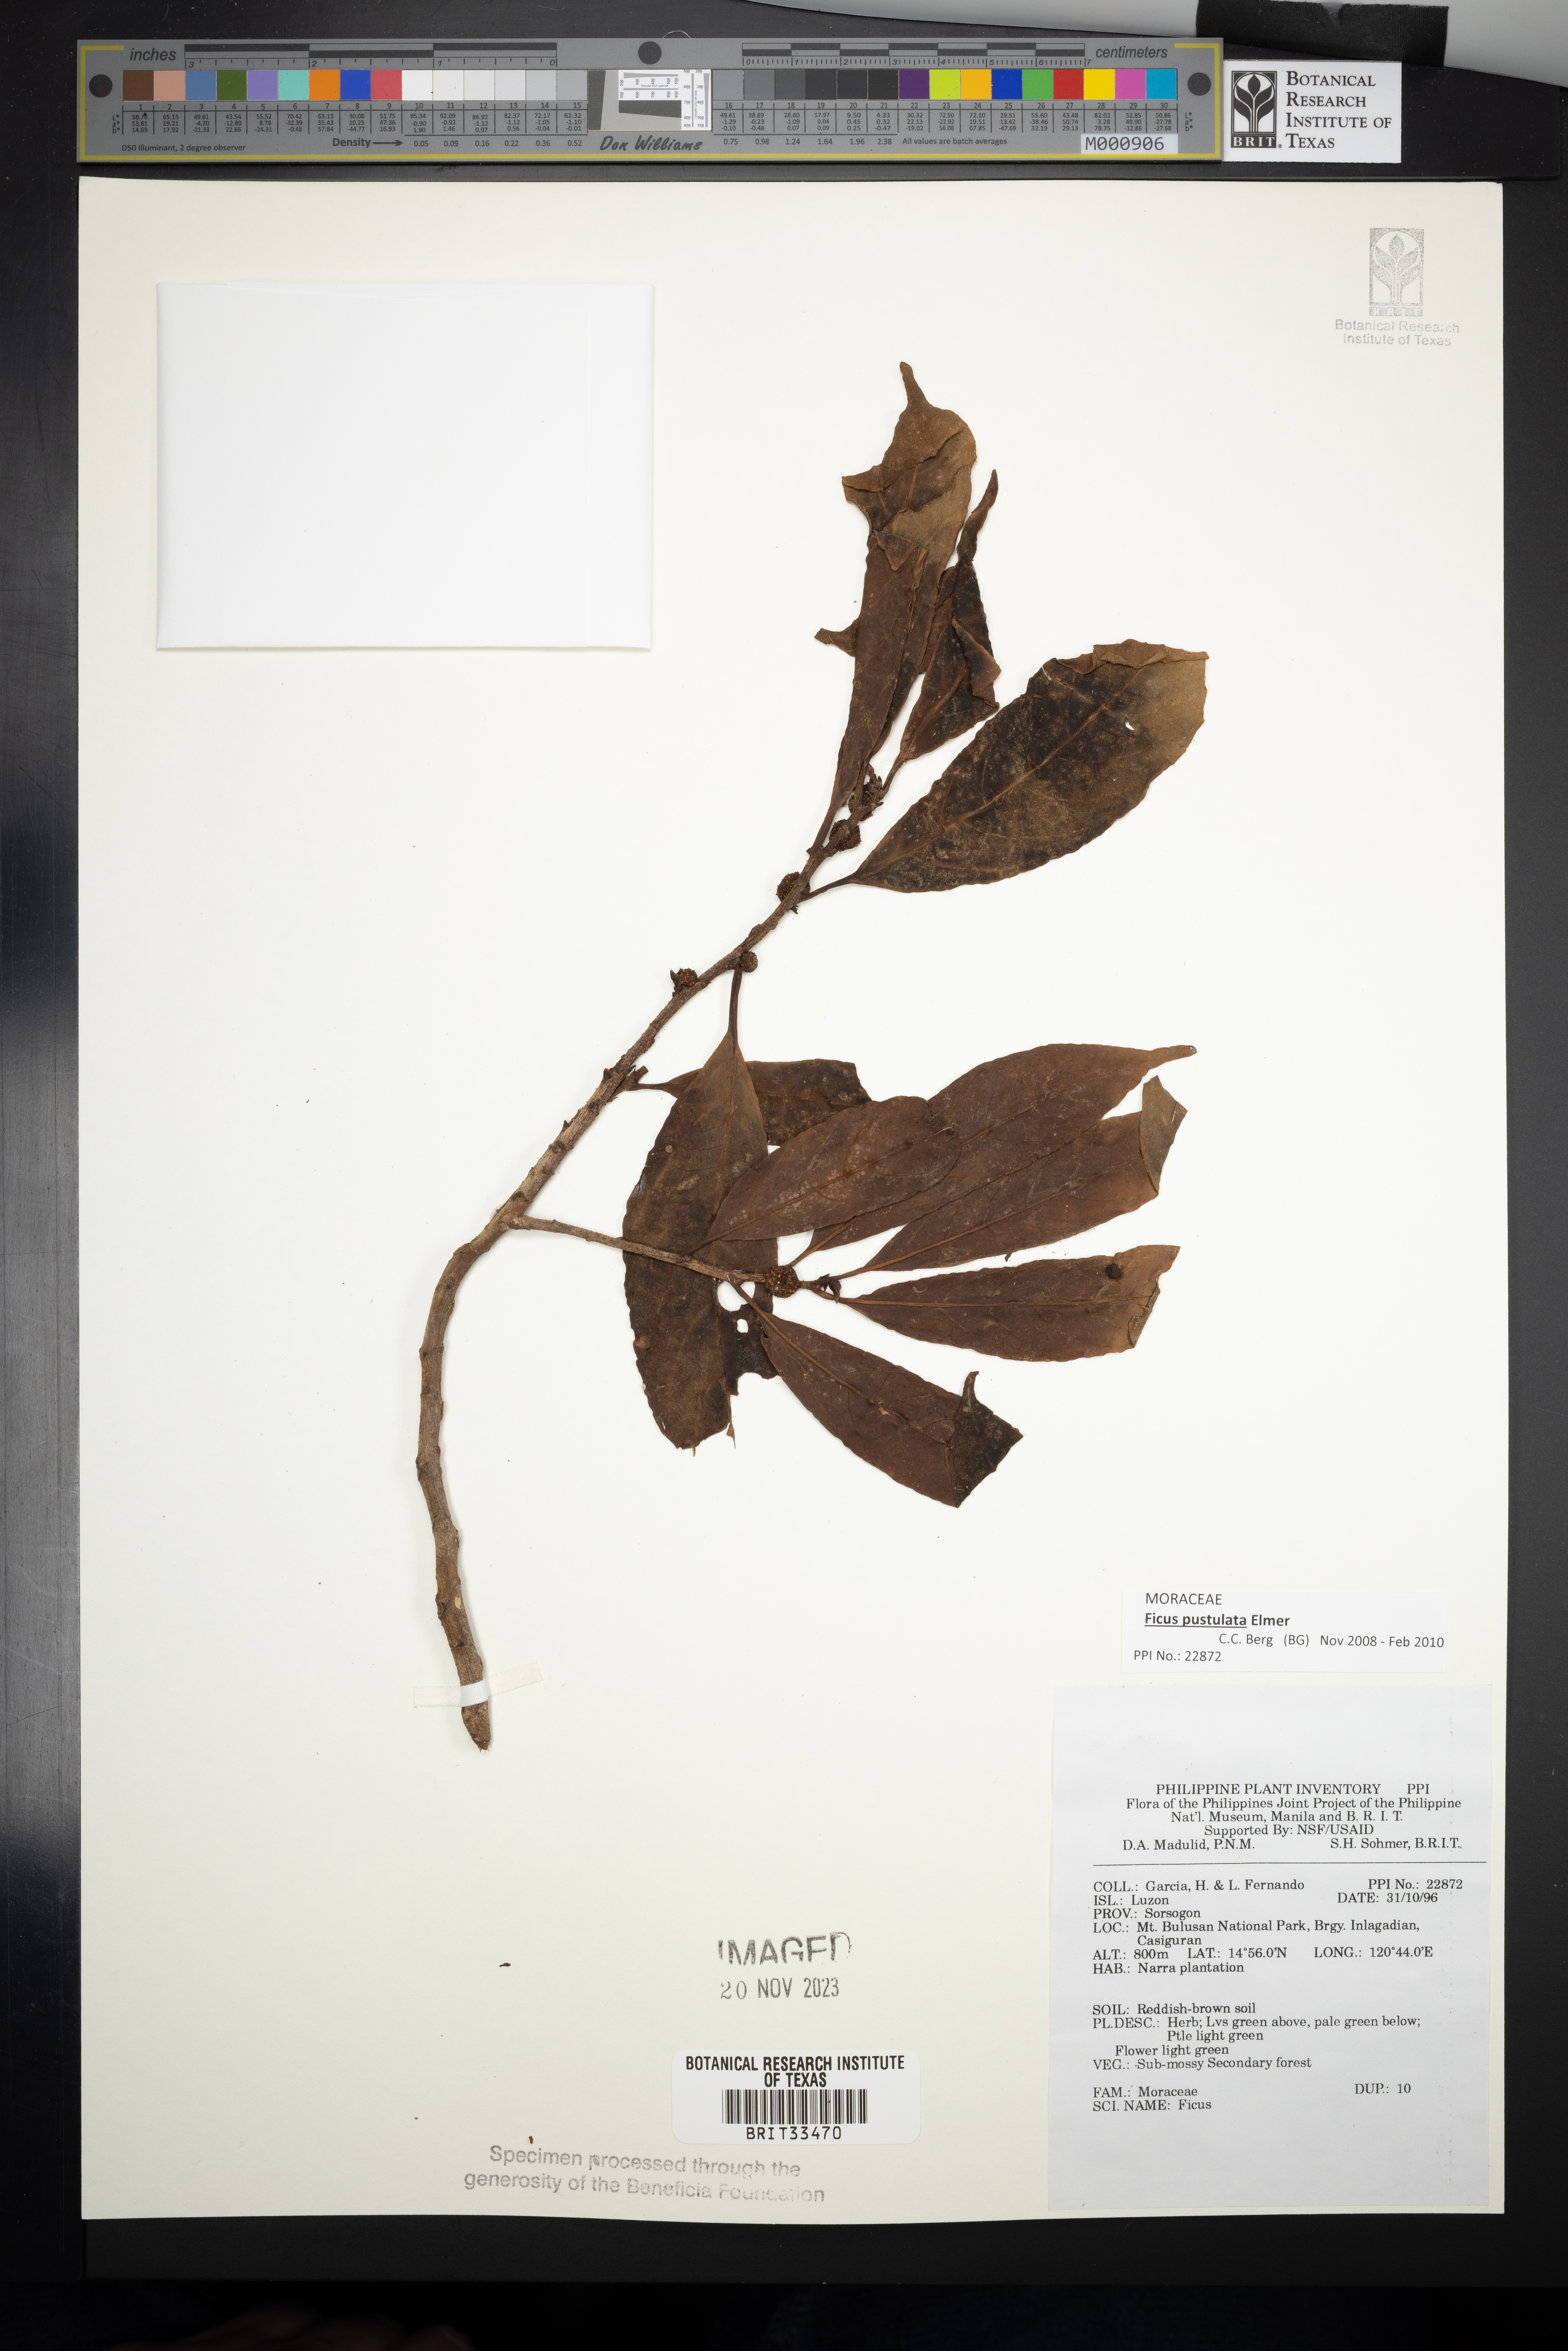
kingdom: Plantae
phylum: Tracheophyta
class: Magnoliopsida
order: Rosales
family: Moraceae
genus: Ficus
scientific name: Ficus
